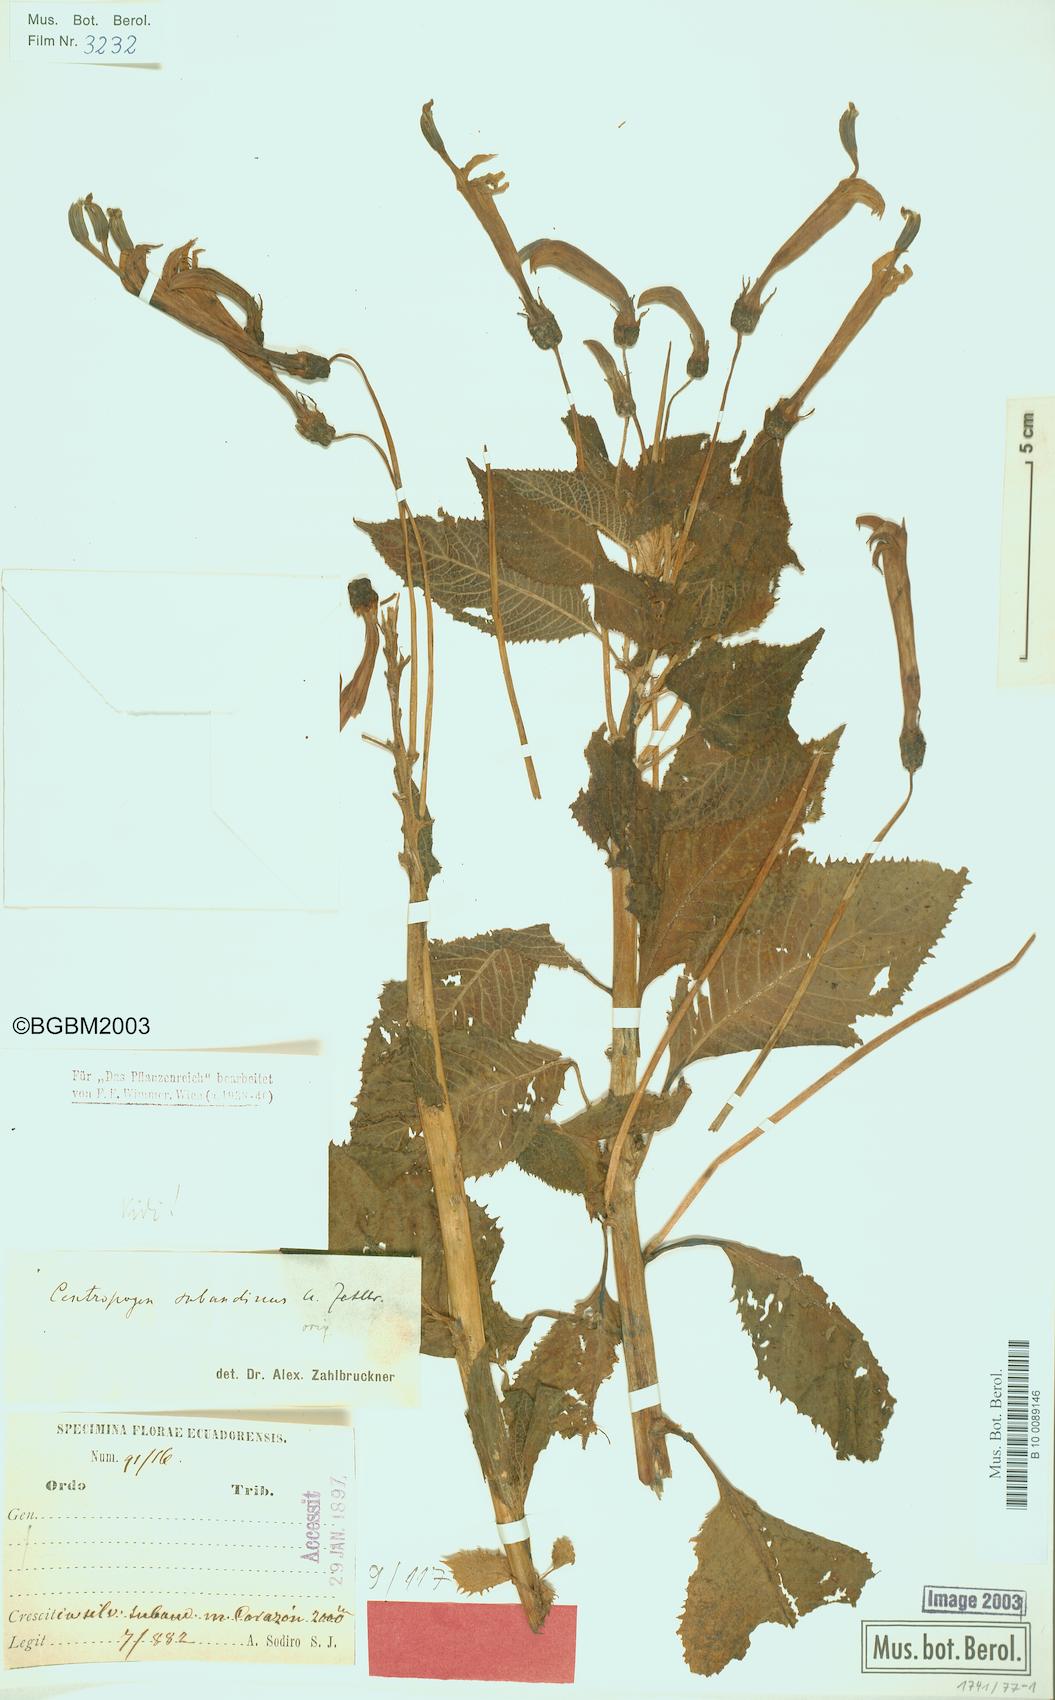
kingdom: Plantae
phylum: Tracheophyta
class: Magnoliopsida
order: Asterales
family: Campanulaceae
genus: Centropogon
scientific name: Centropogon subandinus
